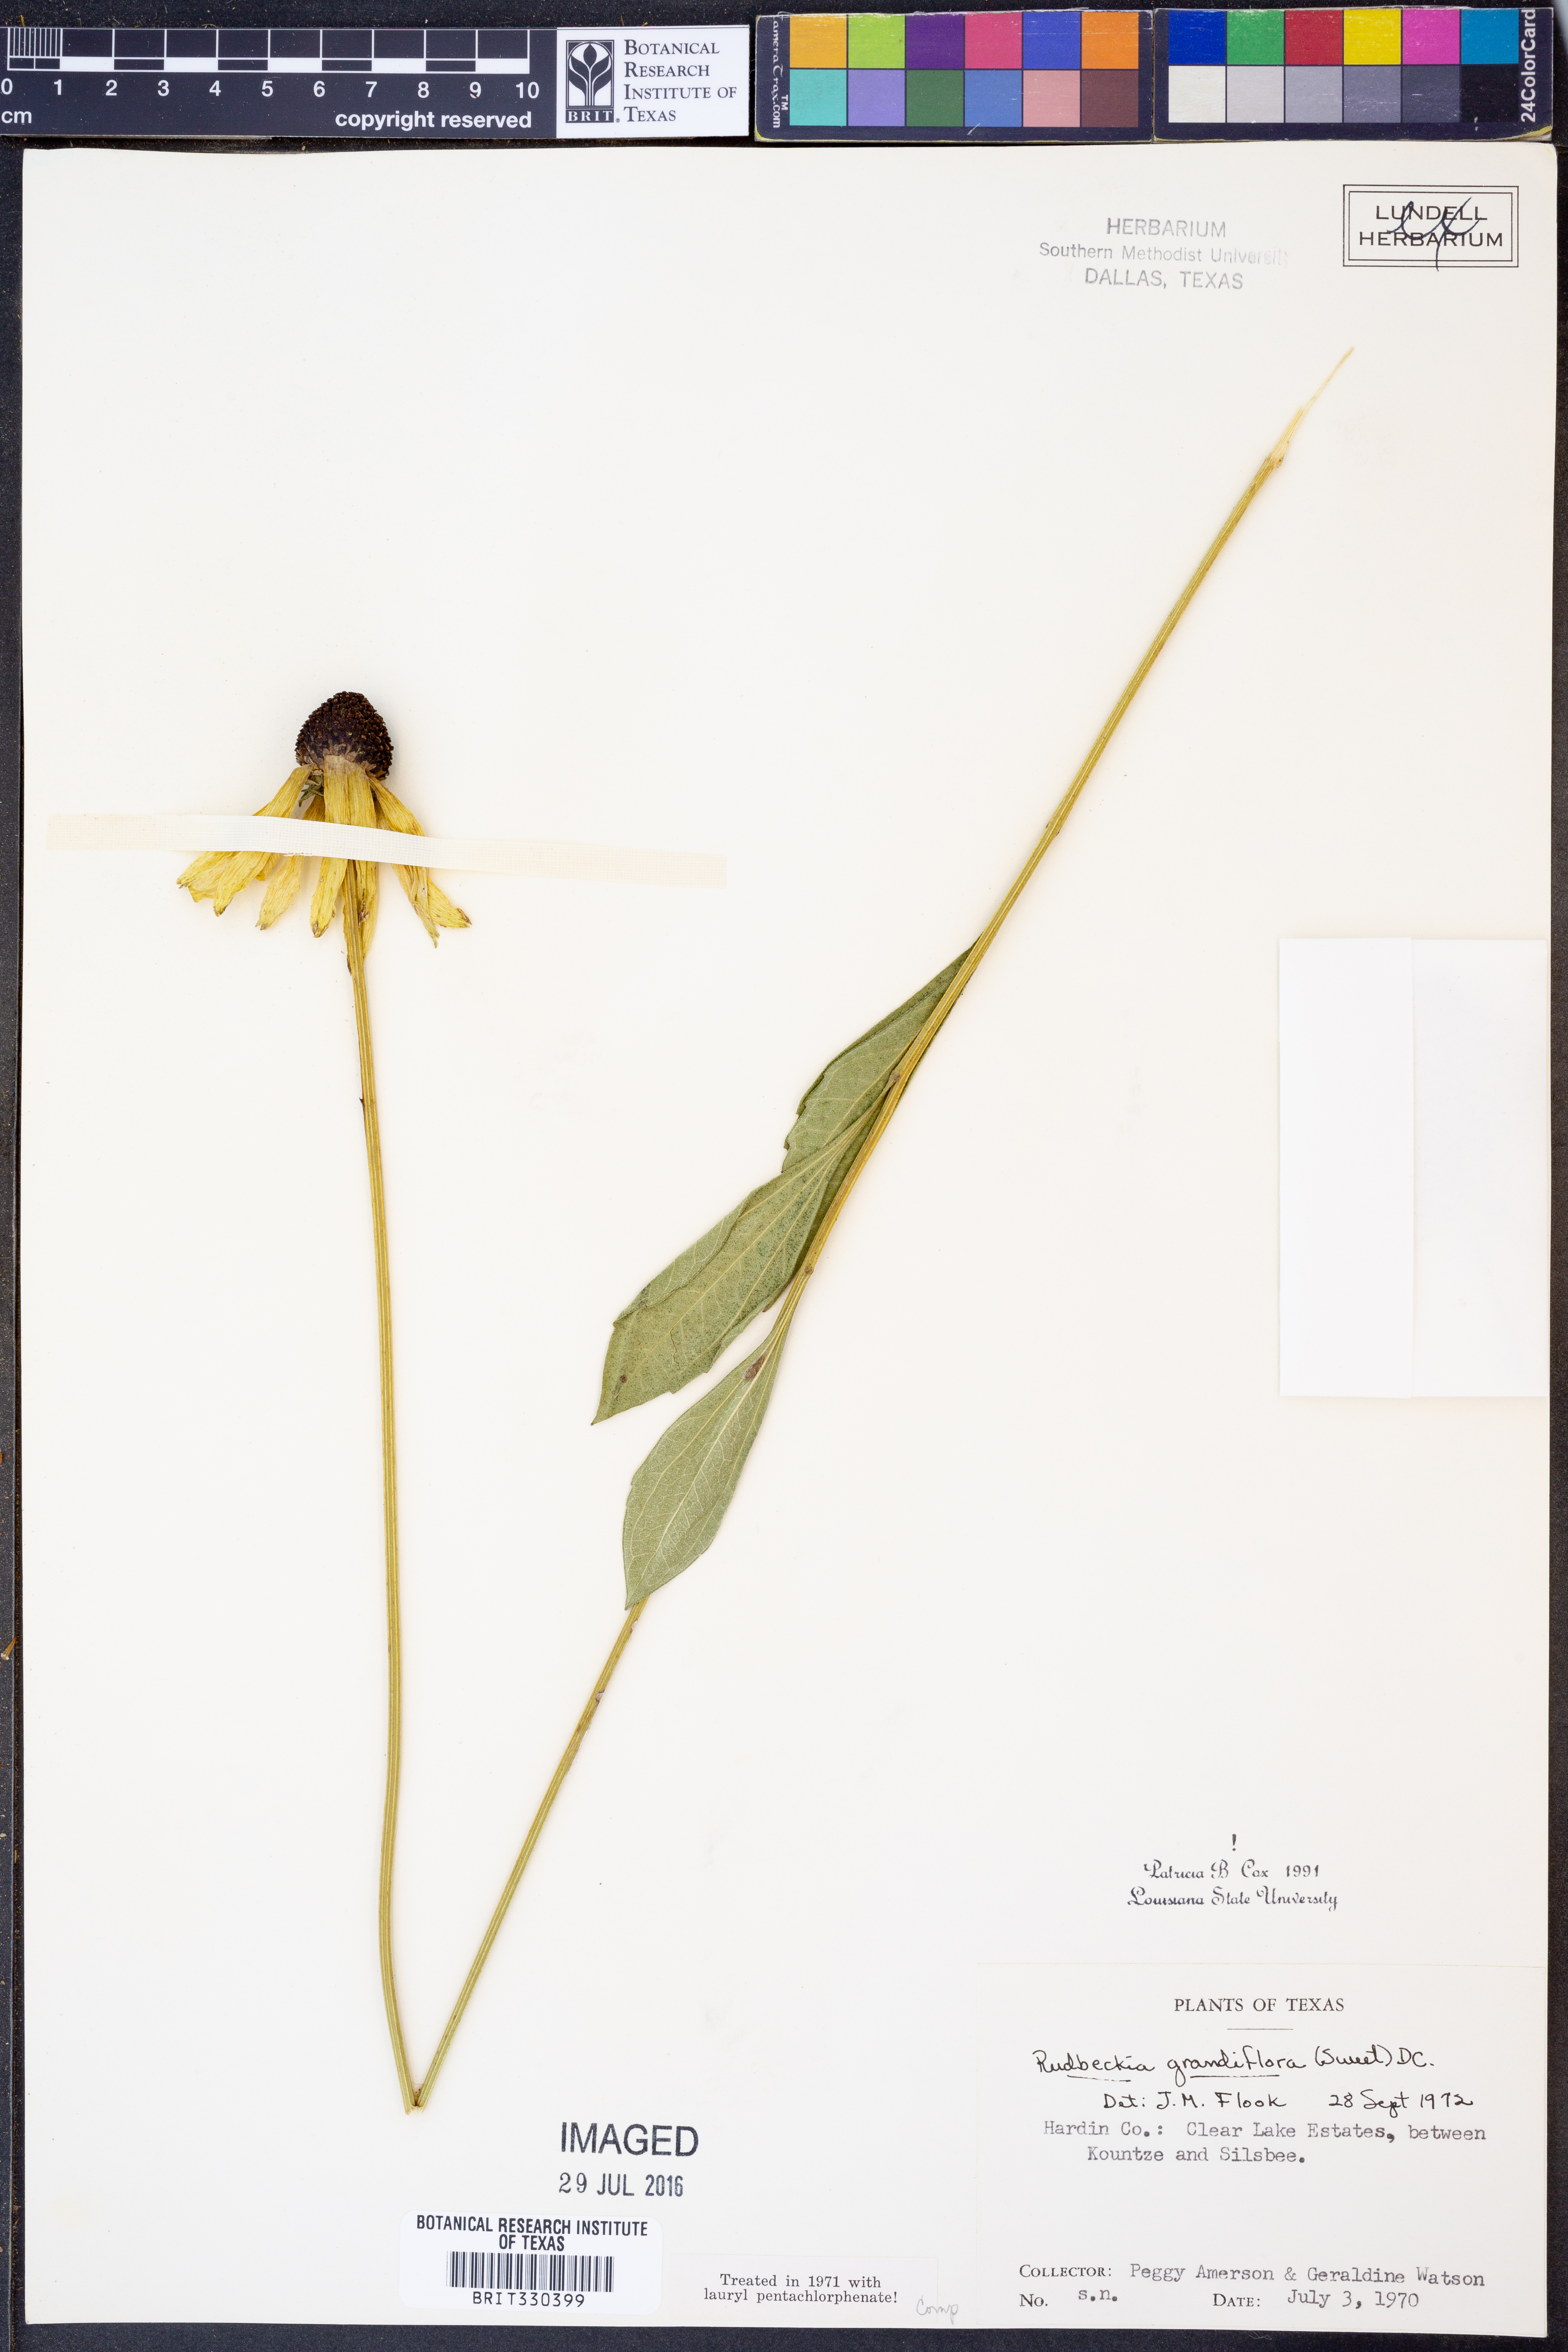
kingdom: Plantae
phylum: Tracheophyta
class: Magnoliopsida
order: Asterales
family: Asteraceae
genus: Rudbeckia
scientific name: Rudbeckia grandiflora
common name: Large-flowered coneflower
